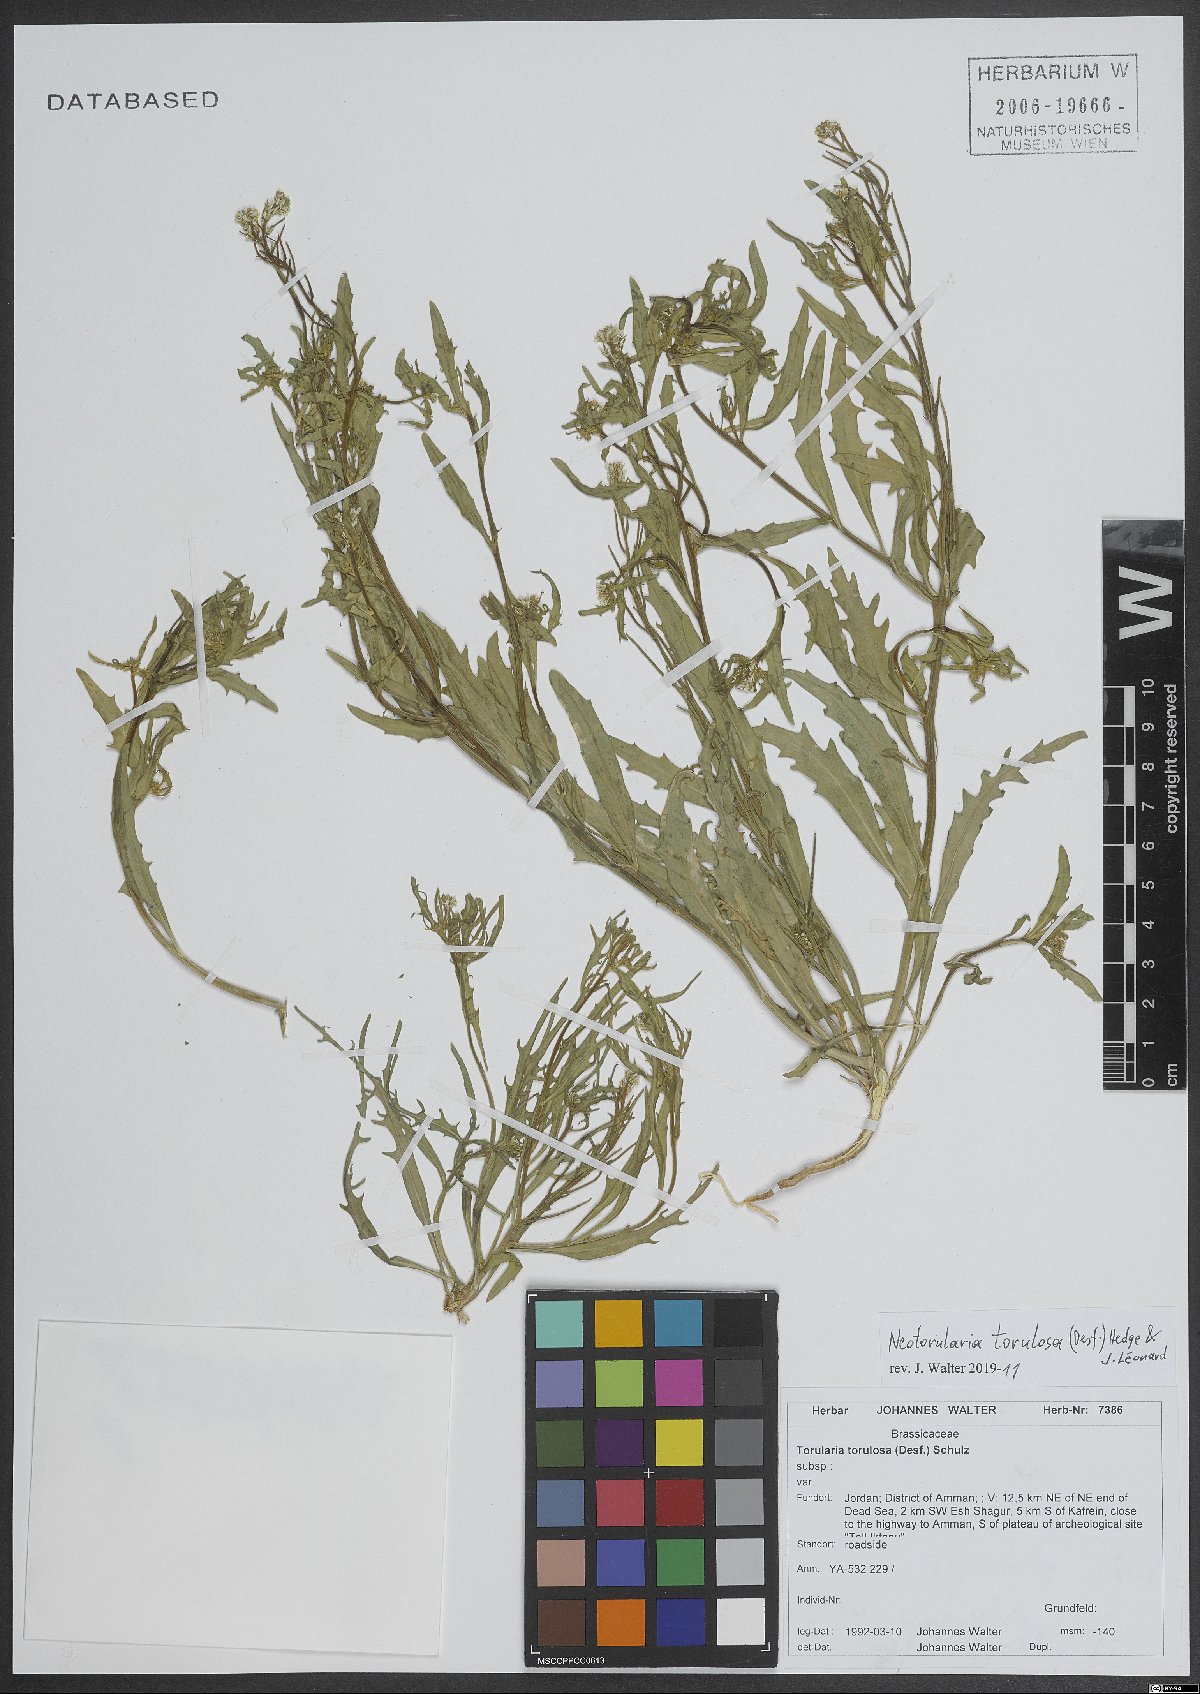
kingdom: Plantae
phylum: Tracheophyta
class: Magnoliopsida
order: Brassicales
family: Brassicaceae
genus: Neotorularia
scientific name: Neotorularia torulosa
